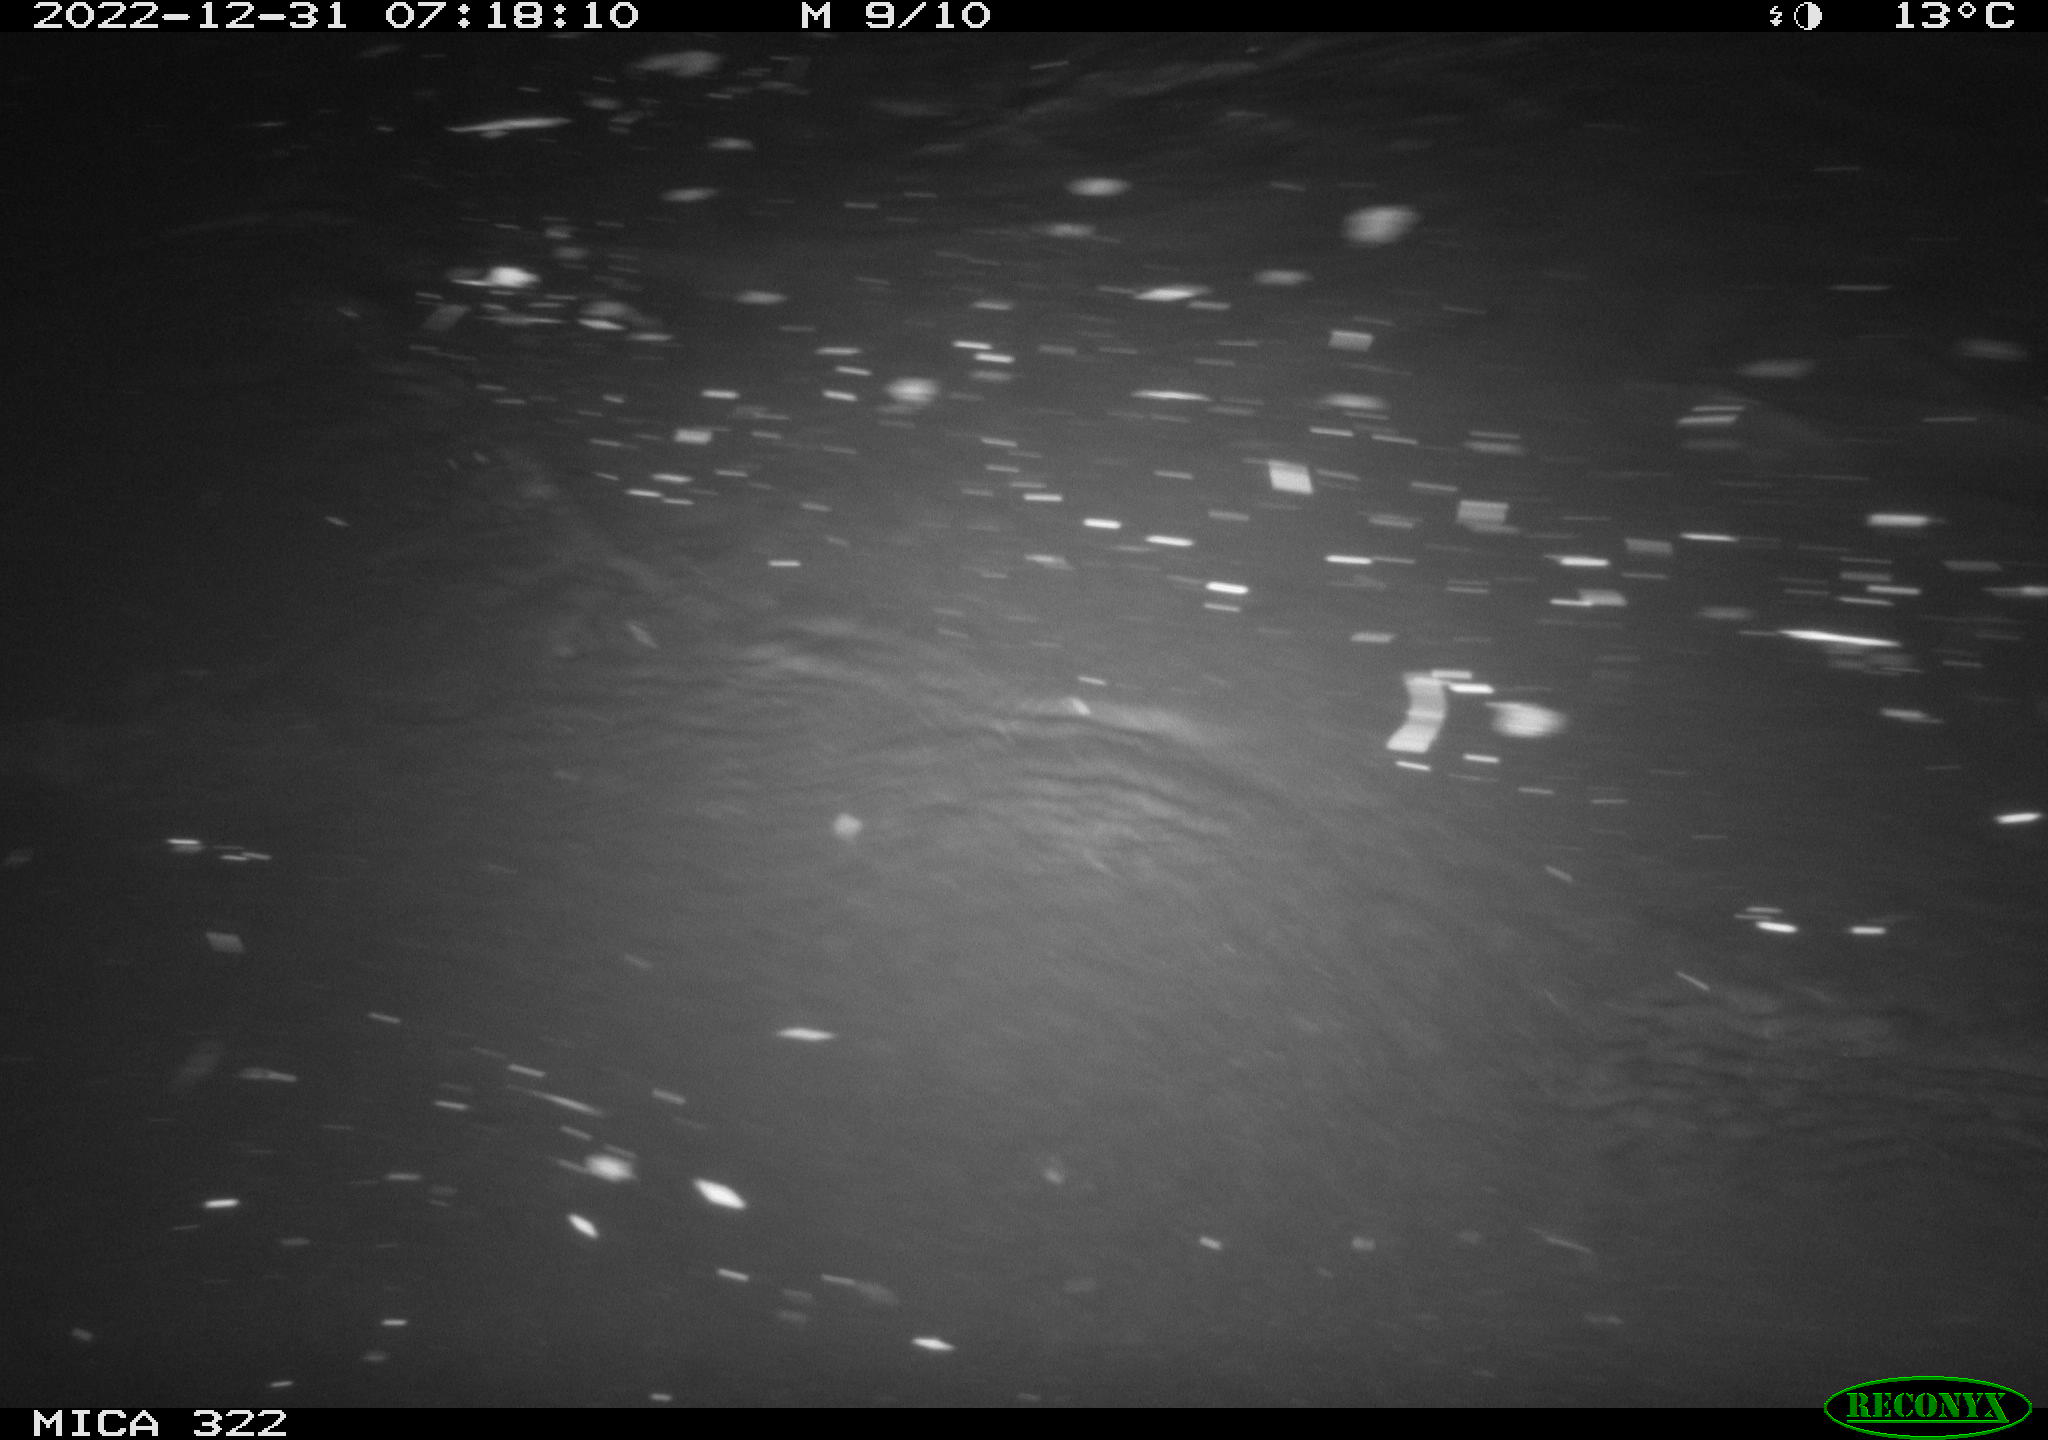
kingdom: Animalia
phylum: Chordata
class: Mammalia
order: Rodentia
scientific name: Rodentia
